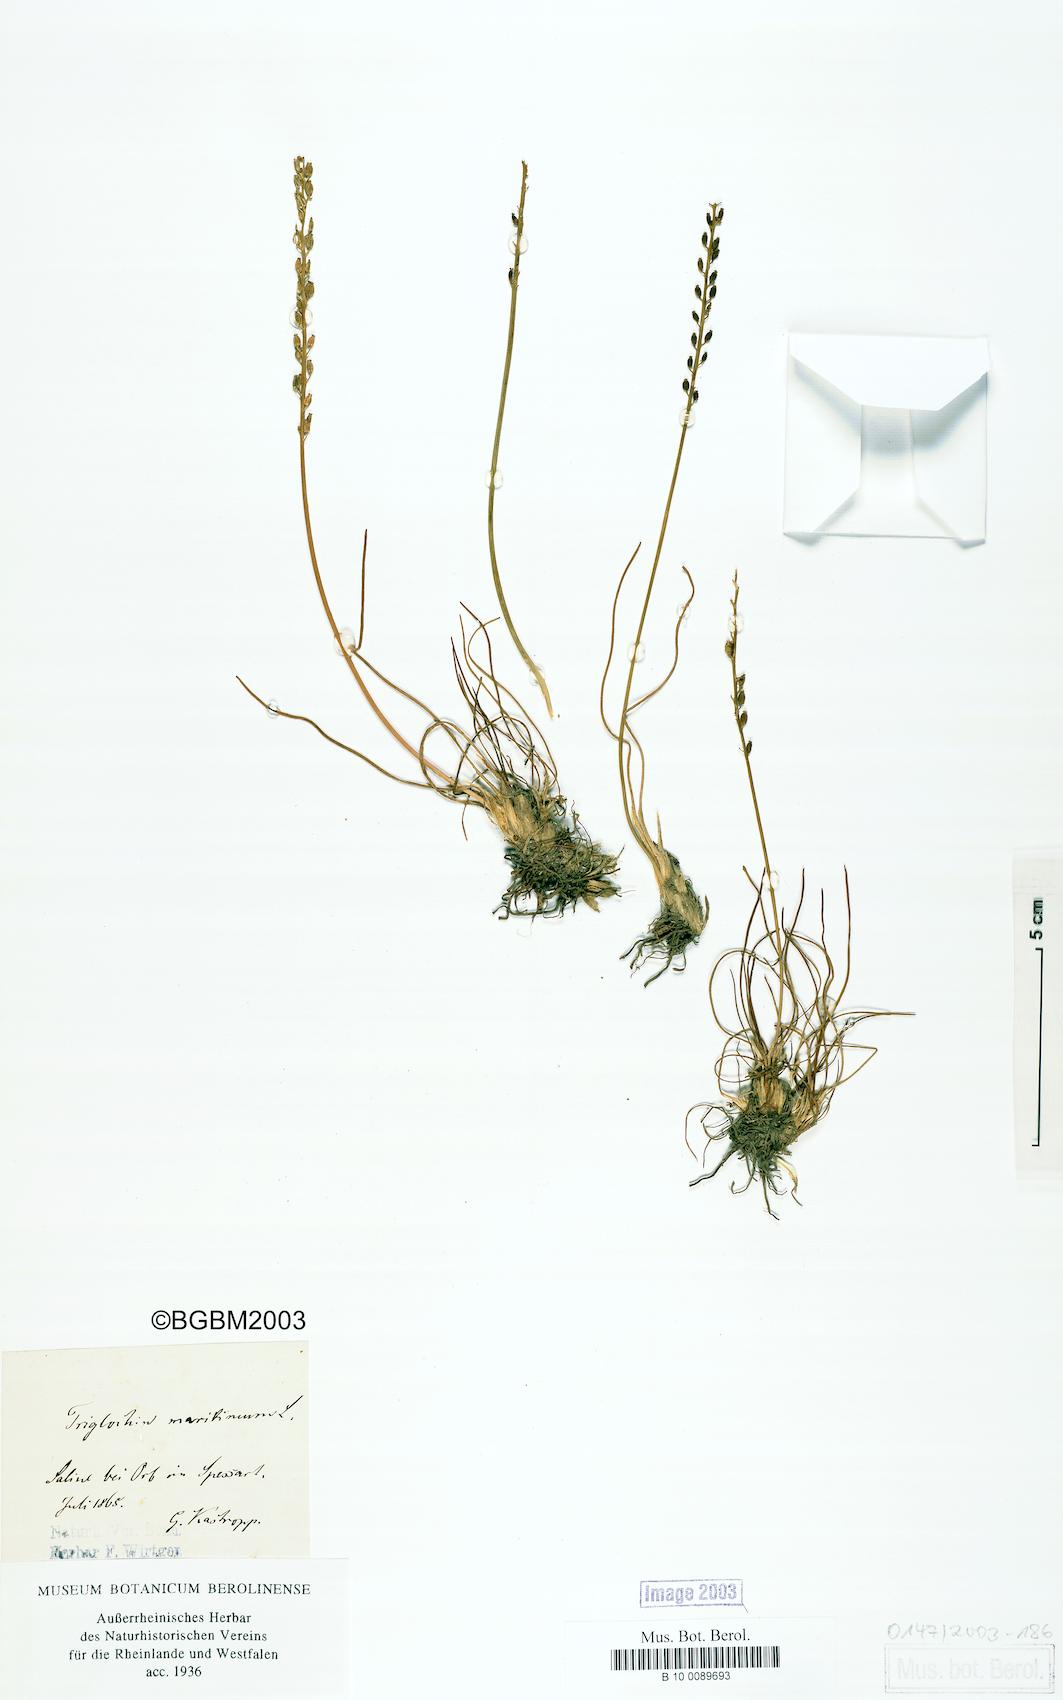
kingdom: Plantae
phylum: Tracheophyta
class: Liliopsida
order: Alismatales
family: Juncaginaceae
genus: Triglochin
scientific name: Triglochin maritima
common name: Sea arrowgrass
